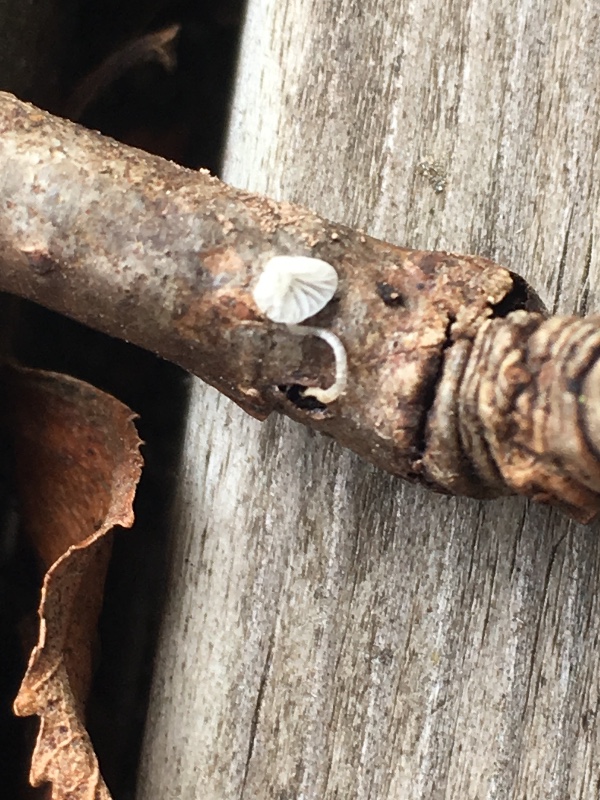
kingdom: Fungi
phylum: Basidiomycota
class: Agaricomycetes
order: Agaricales
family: Mycenaceae
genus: Hemimycena
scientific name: Hemimycena
